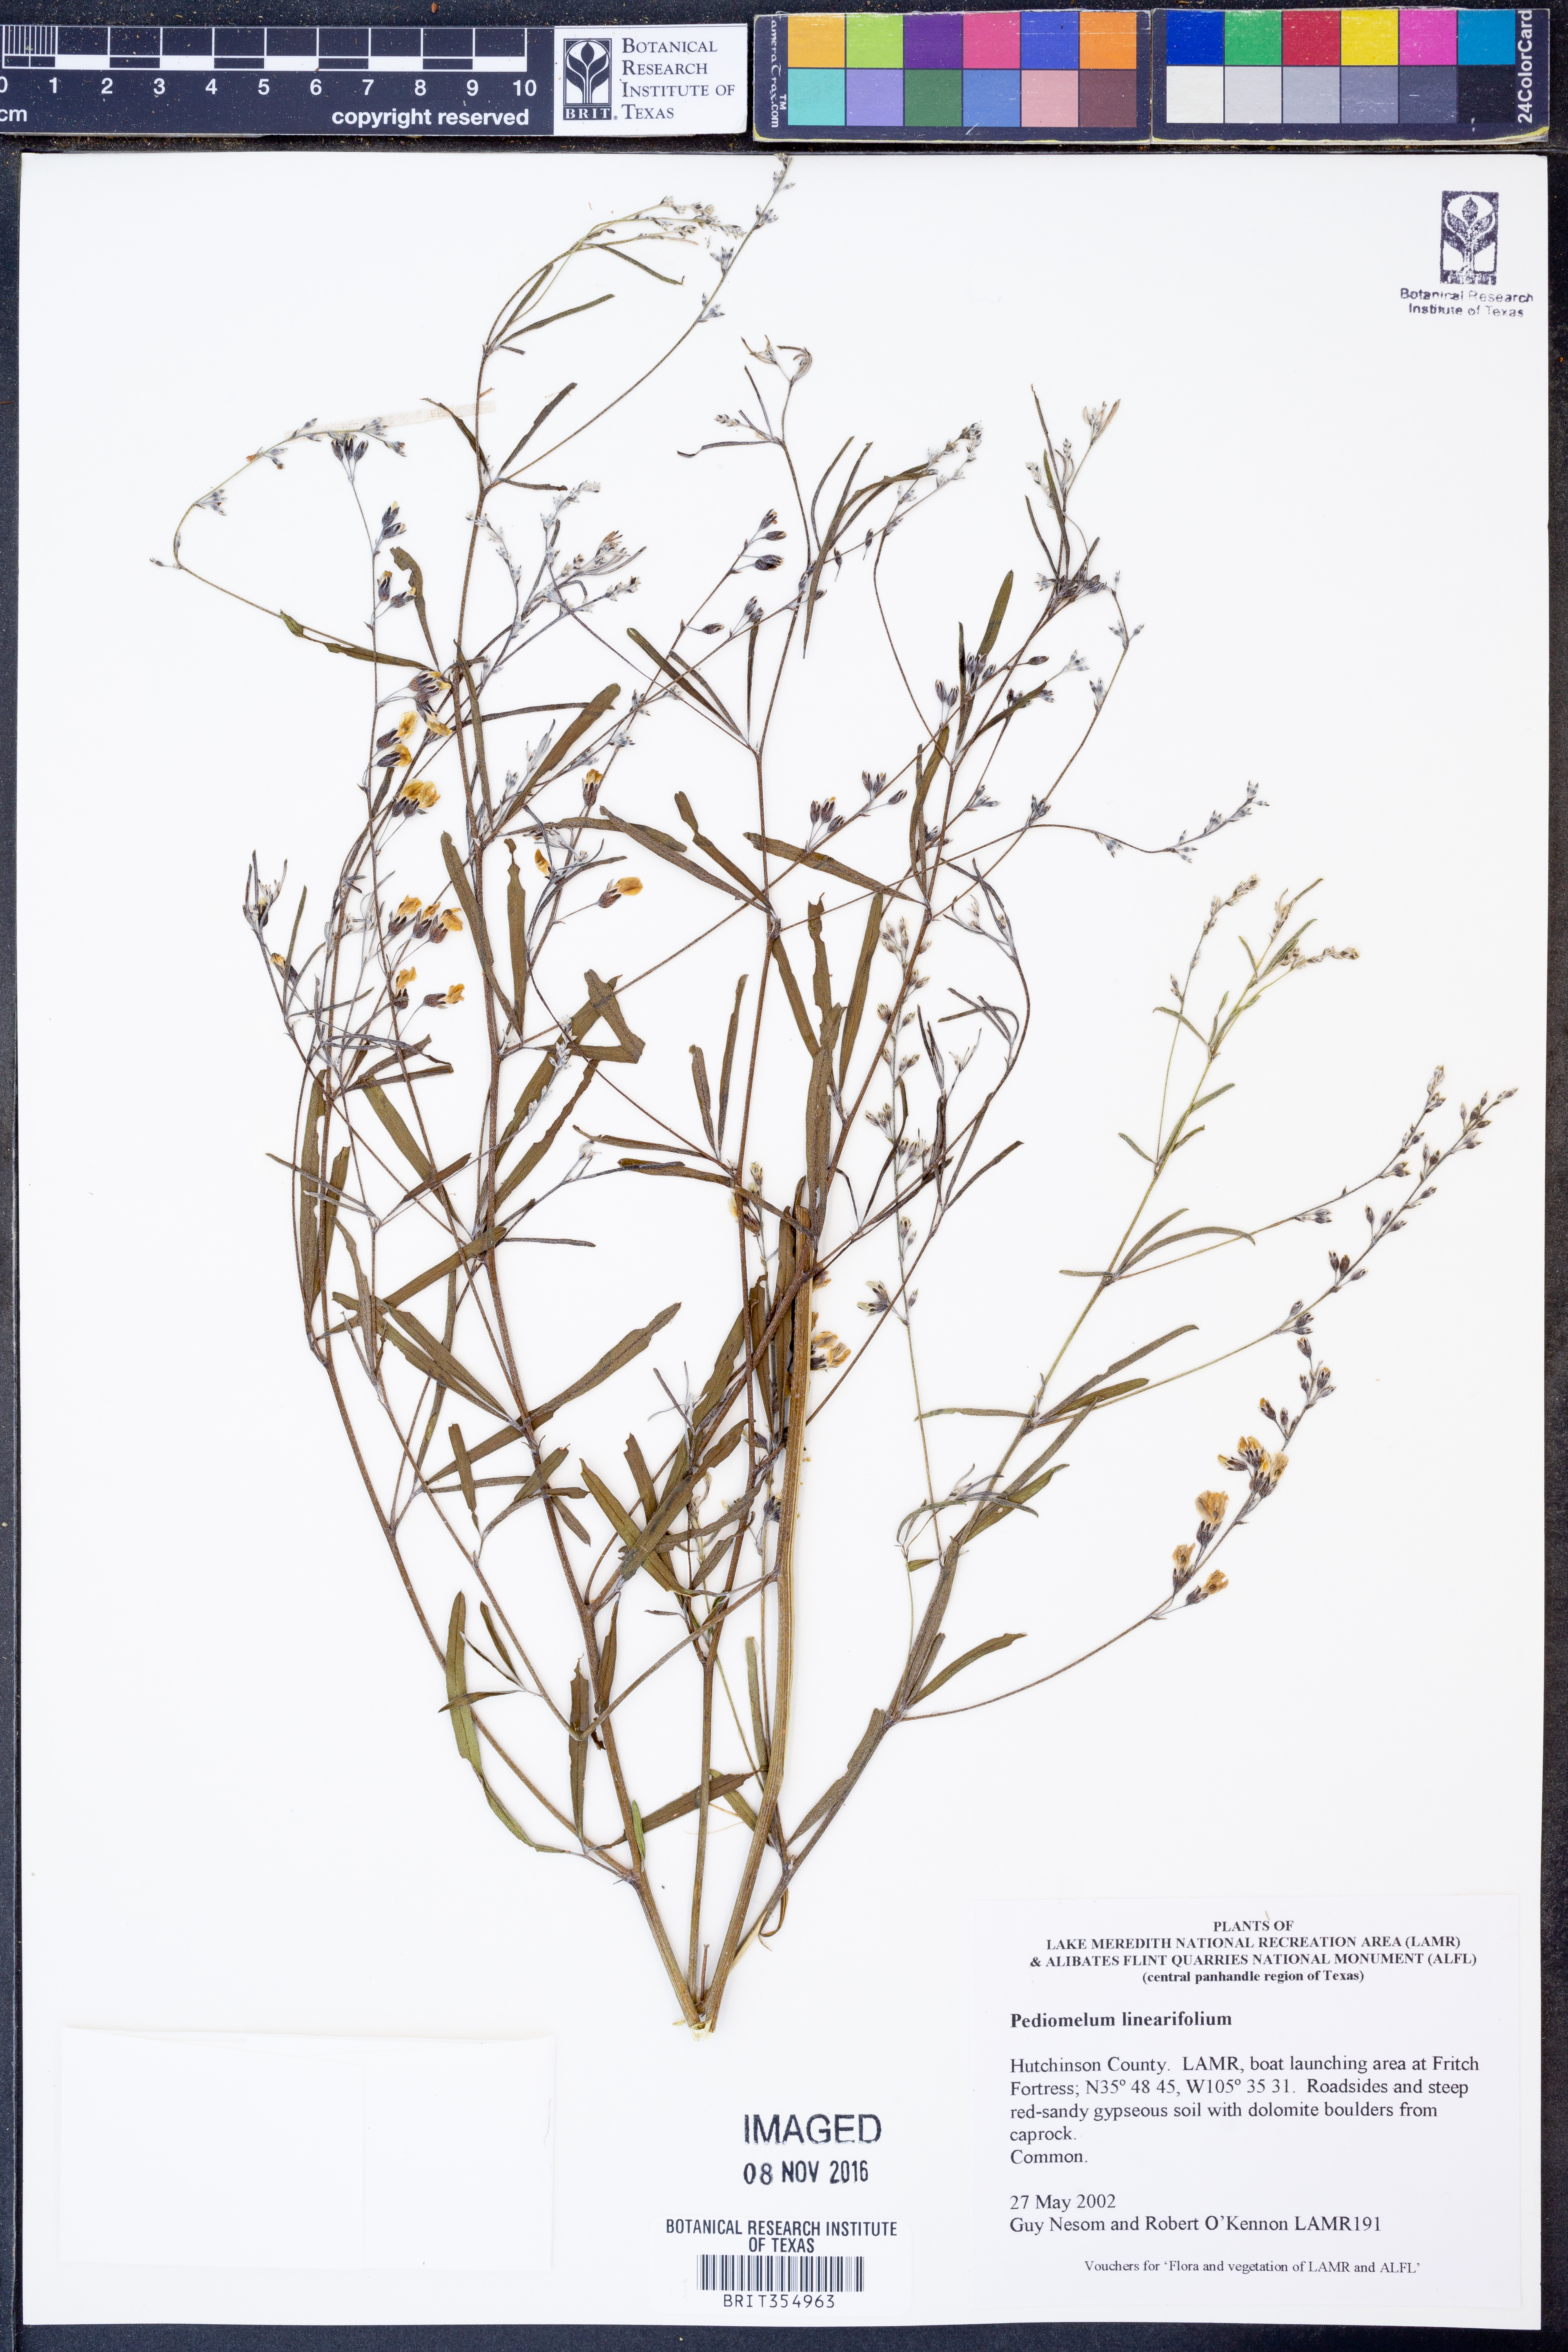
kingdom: Plantae
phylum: Tracheophyta
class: Magnoliopsida
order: Fabales
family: Fabaceae
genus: Pediomelum
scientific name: Pediomelum linearifolium
